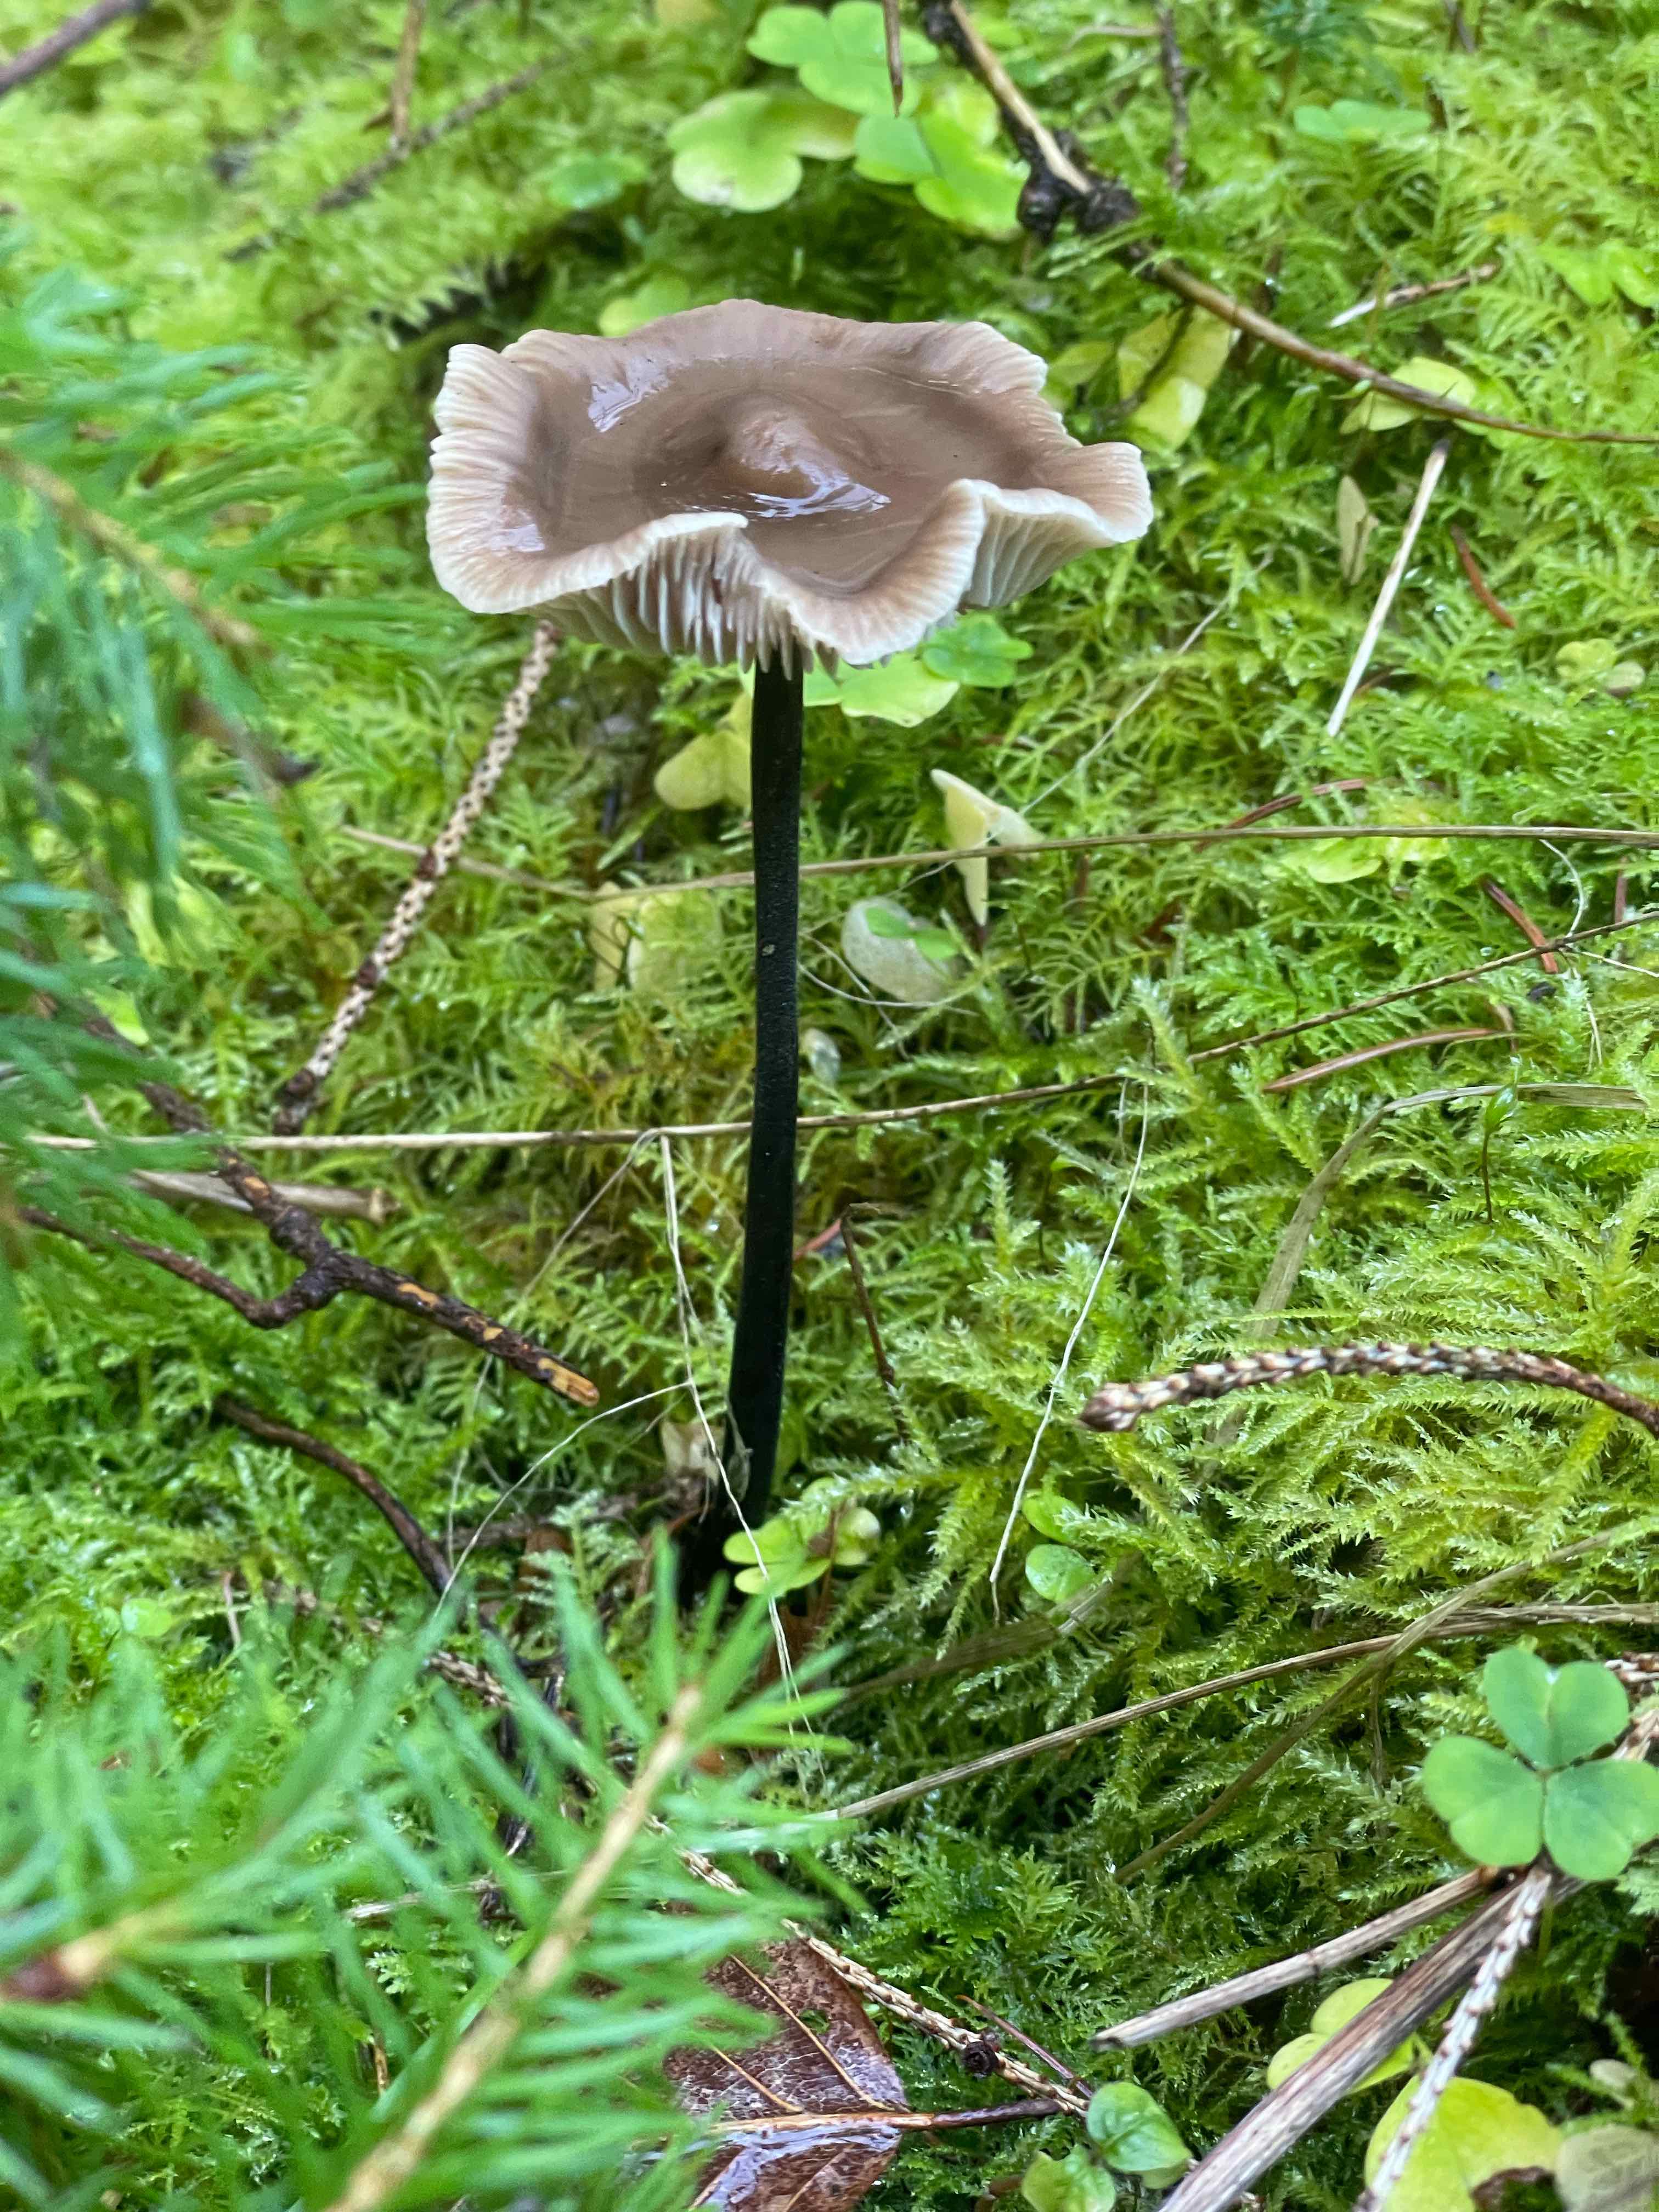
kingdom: Fungi
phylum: Basidiomycota
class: Agaricomycetes
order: Agaricales
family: Omphalotaceae
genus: Mycetinis
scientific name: Mycetinis alliaceus
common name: stor løghat
